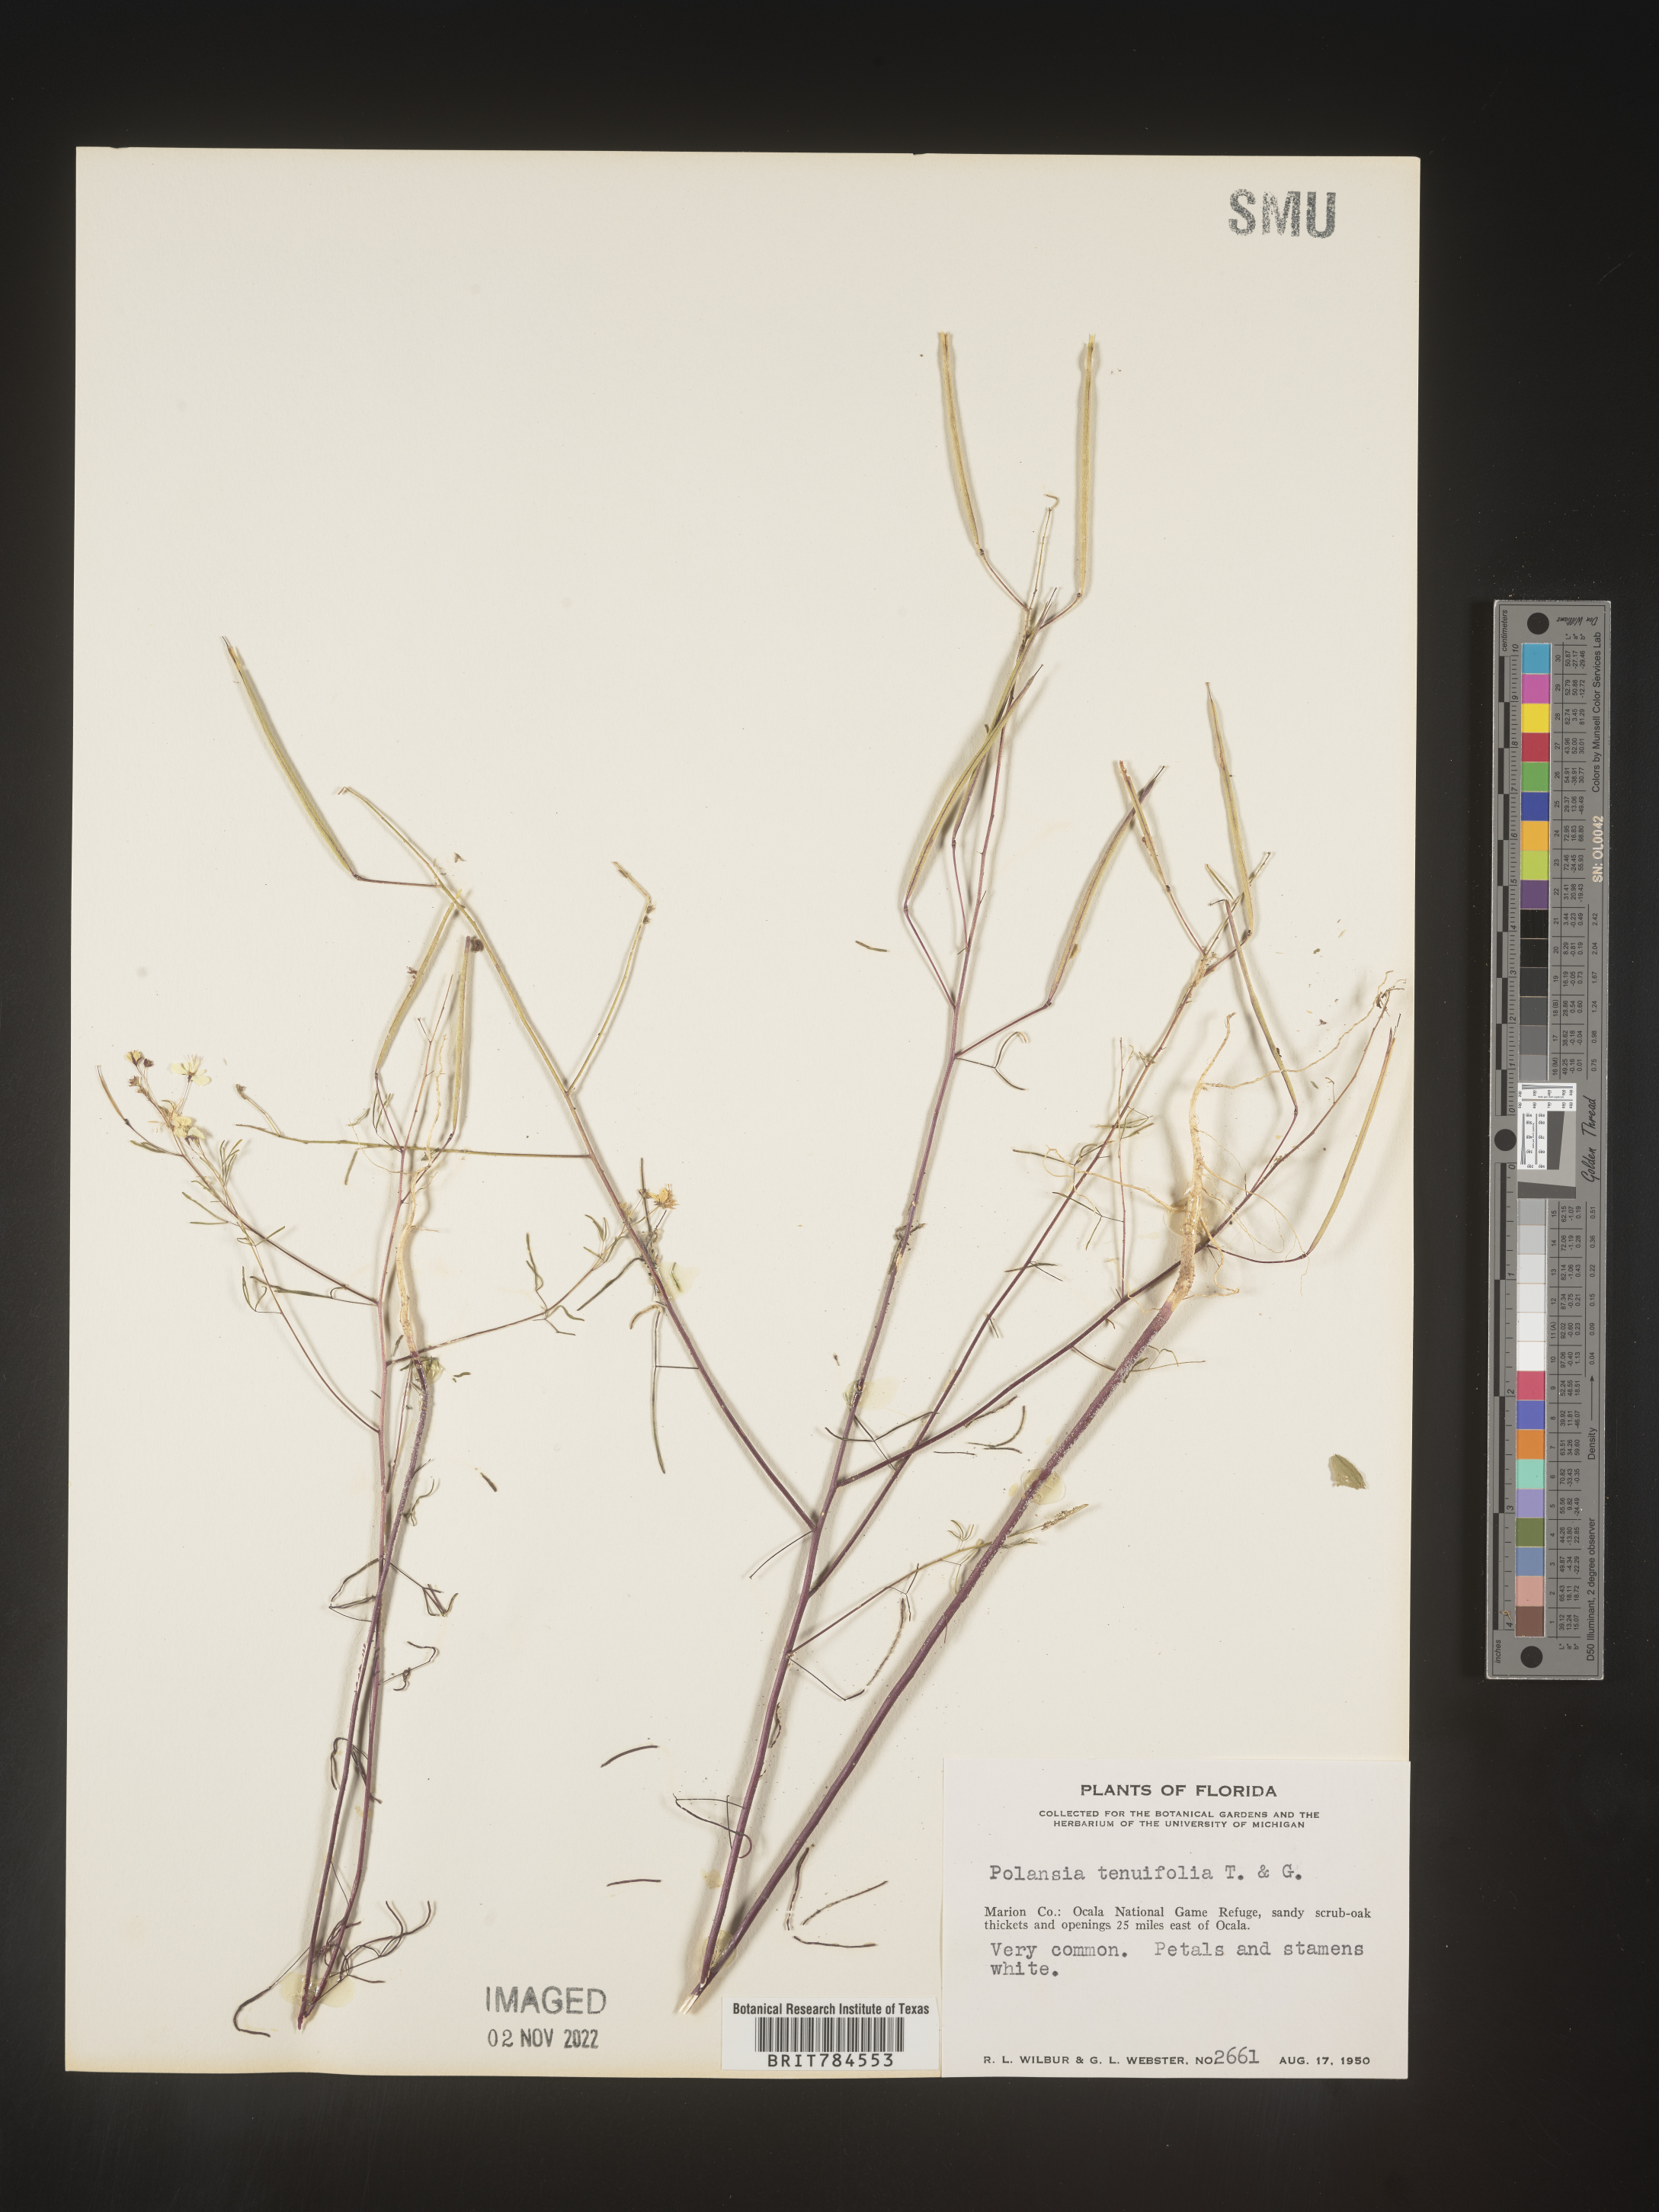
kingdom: Plantae
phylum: Tracheophyta
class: Magnoliopsida
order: Brassicales
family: Cleomaceae
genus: Polanisia
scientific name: Polanisia
